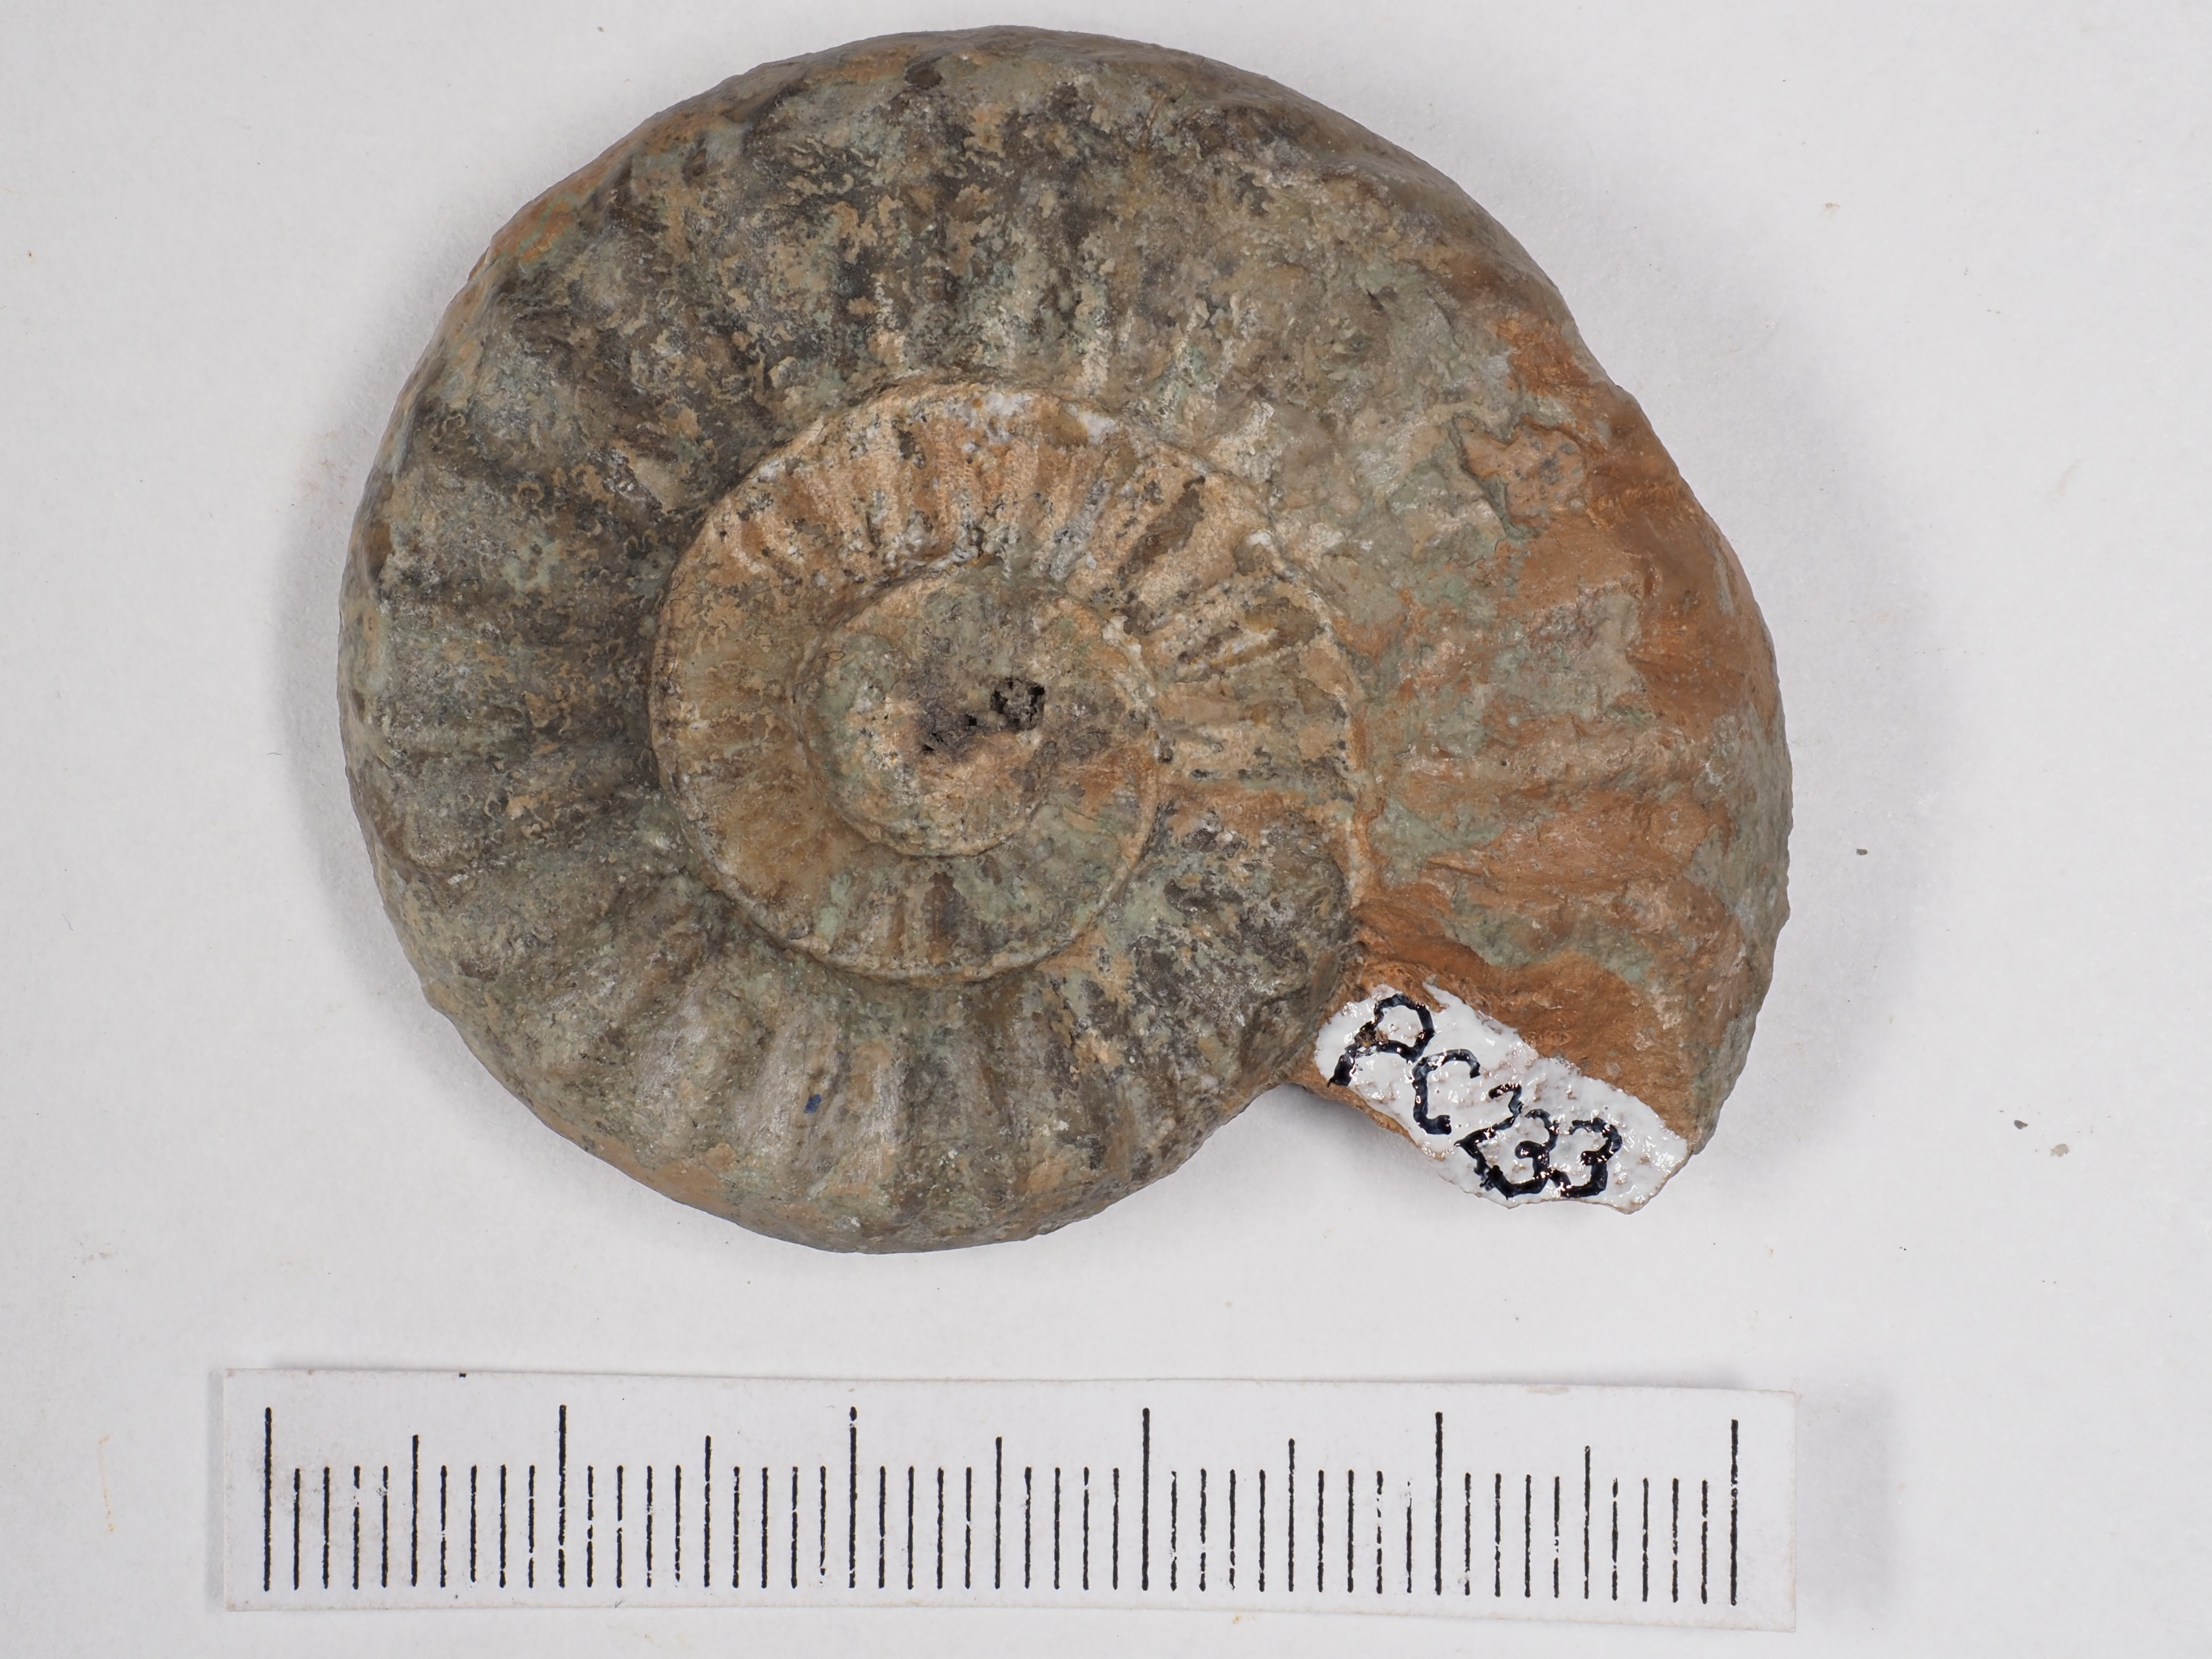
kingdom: Animalia
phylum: Mollusca
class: Cephalopoda
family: Polymorphitidae
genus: Acanthopleuroceras
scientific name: Acanthopleuroceras maugenesti
